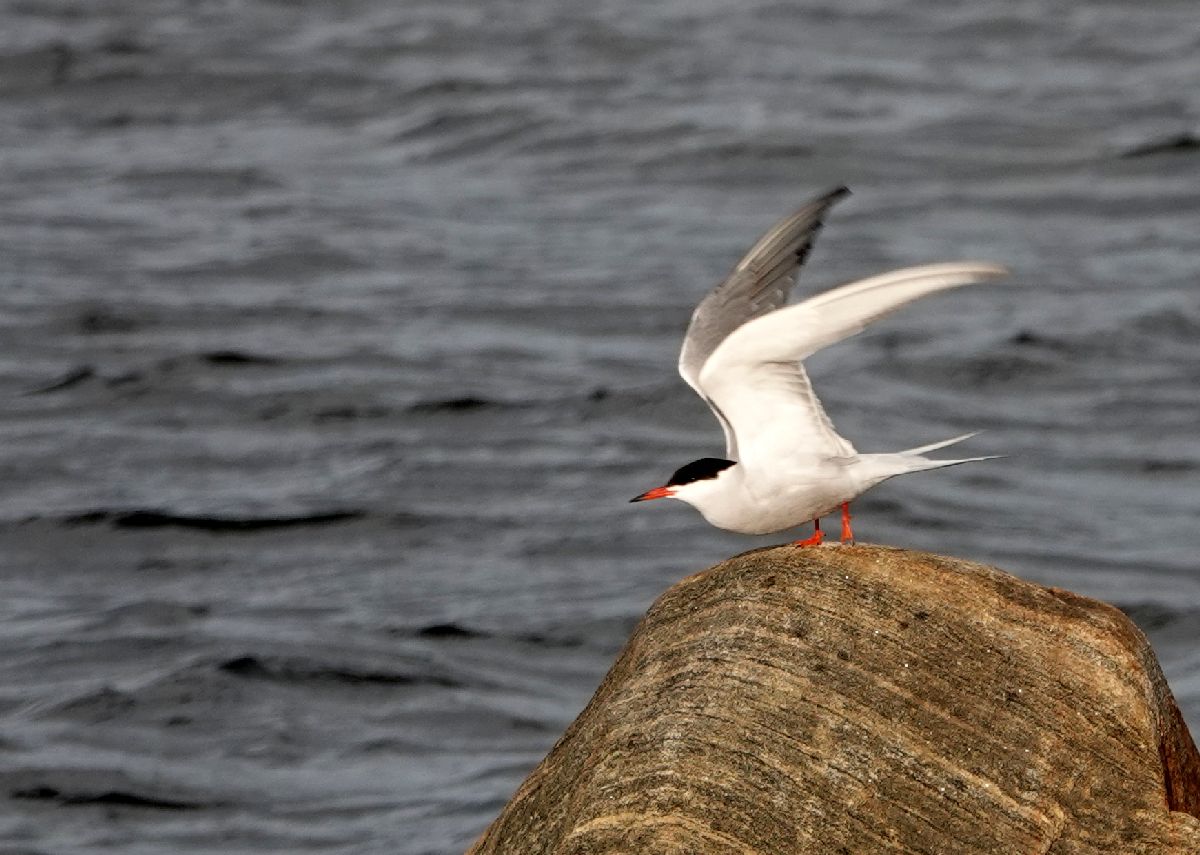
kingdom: Animalia
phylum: Chordata
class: Aves
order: Charadriiformes
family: Laridae
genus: Sterna
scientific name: Sterna hirundo
